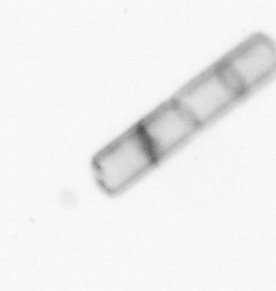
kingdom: Chromista
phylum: Ochrophyta
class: Bacillariophyceae
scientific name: Bacillariophyceae
